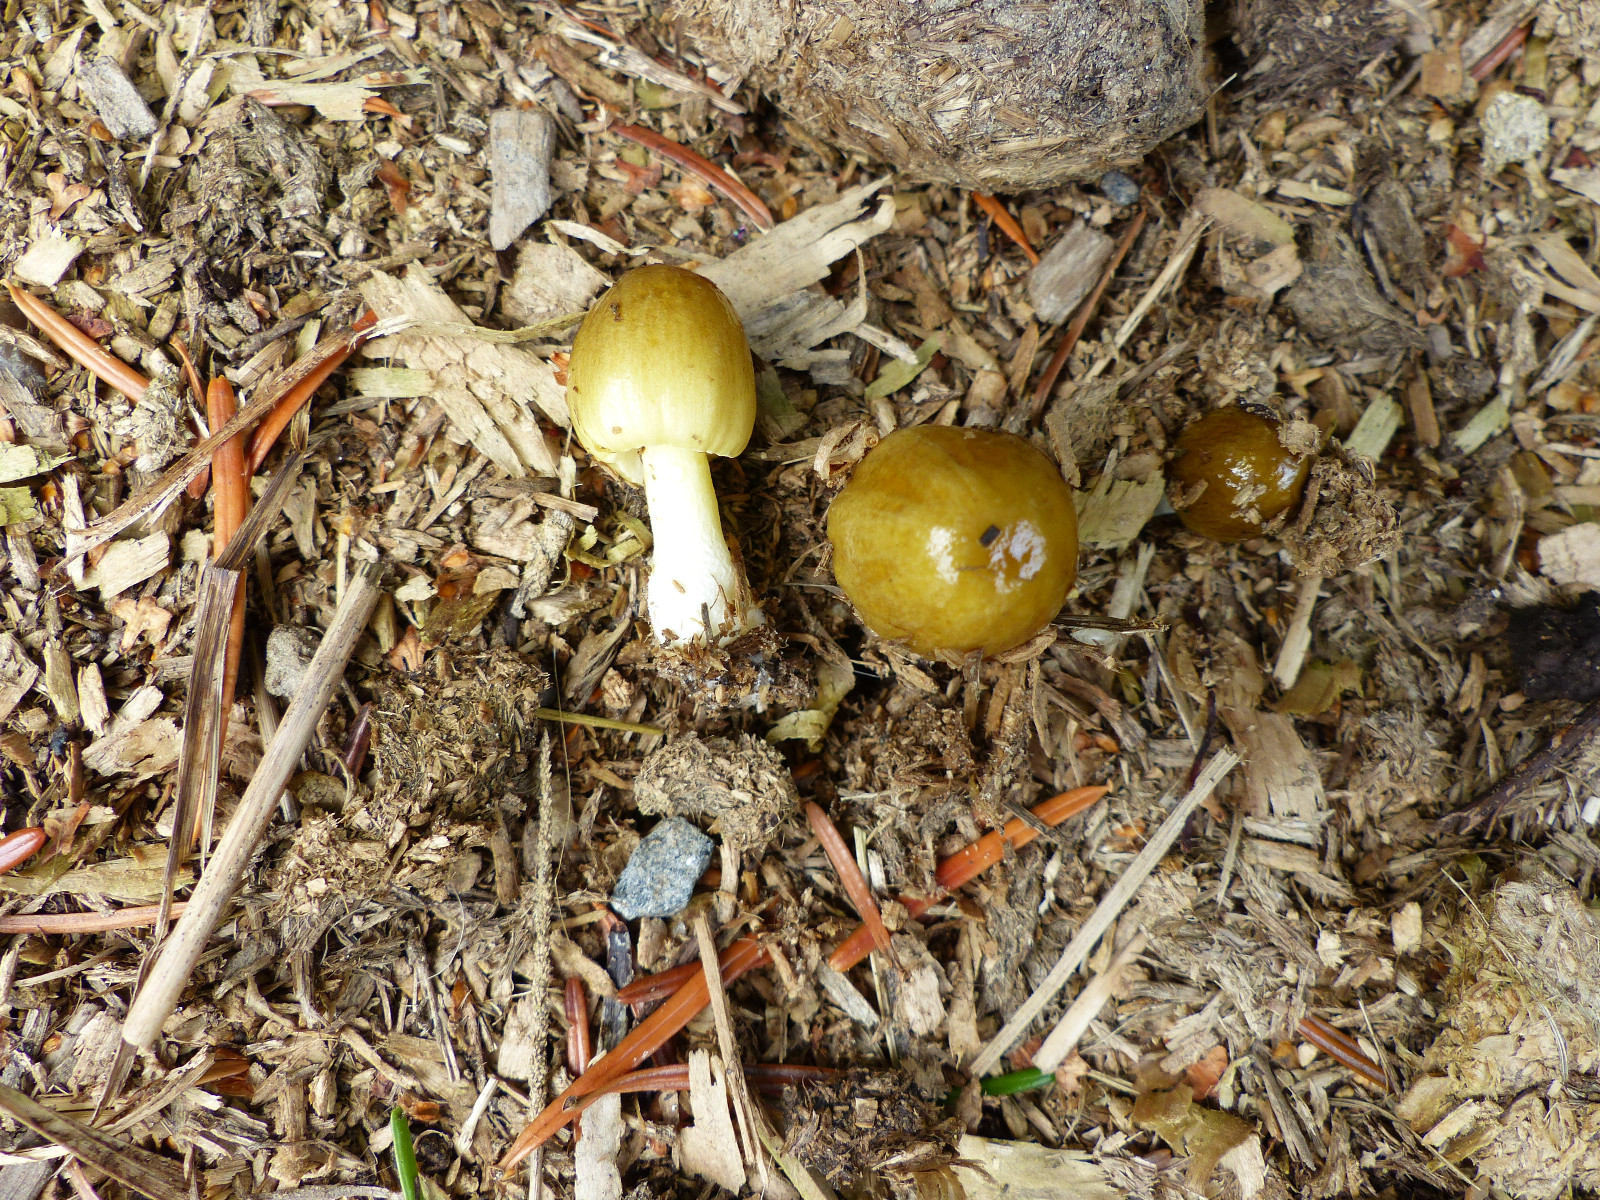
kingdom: Fungi
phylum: Basidiomycota
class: Agaricomycetes
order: Agaricales
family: Bolbitiaceae
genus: Bolbitius
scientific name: Bolbitius titubans
